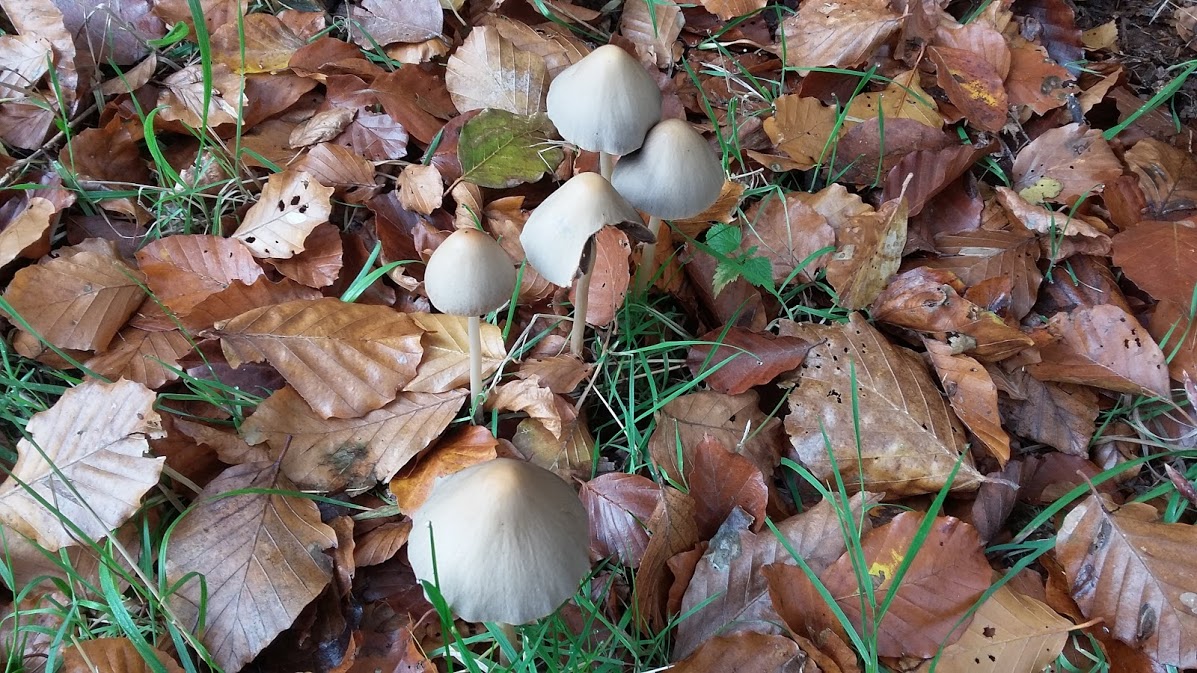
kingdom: Fungi
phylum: Basidiomycota
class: Agaricomycetes
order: Agaricales
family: Psathyrellaceae
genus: Parasola
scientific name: Parasola conopilea
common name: kegle-hjulhat
